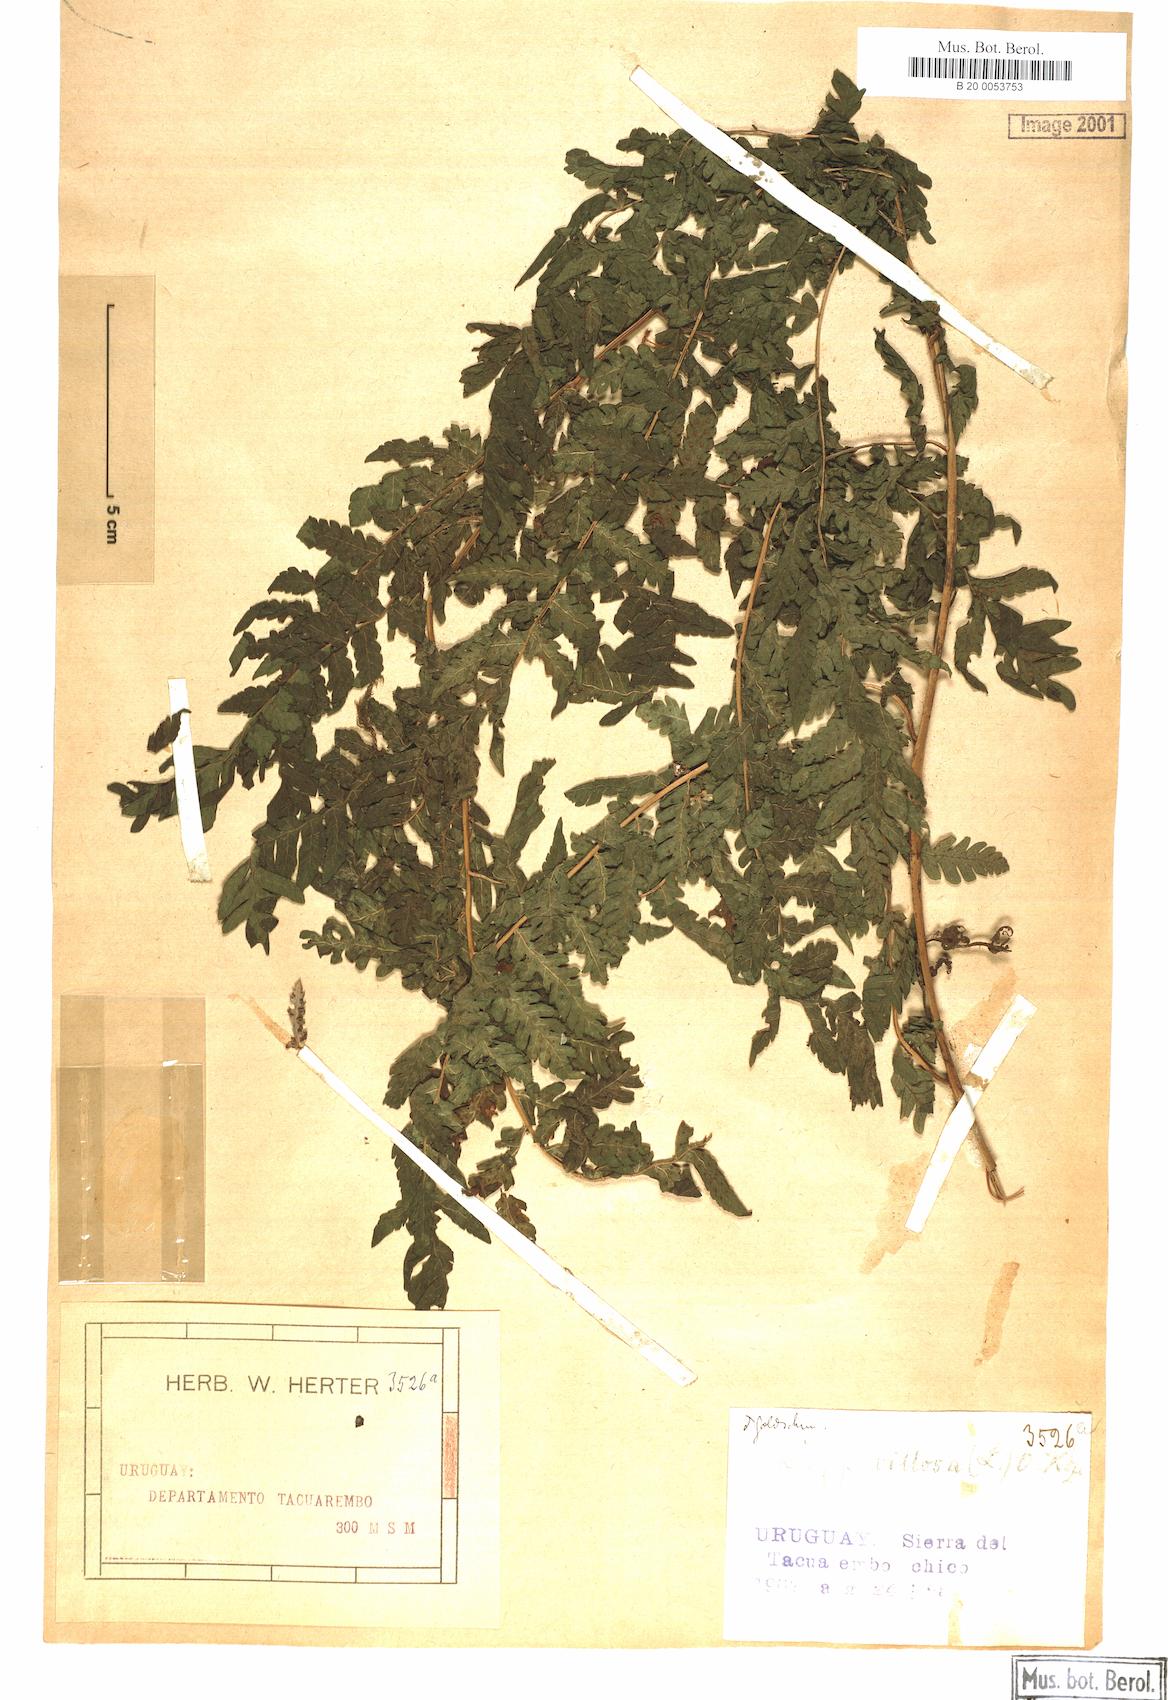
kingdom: Plantae
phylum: Tracheophyta
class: Polypodiopsida
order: Polypodiales
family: Dryopteridaceae
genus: Megalastrum
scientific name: Megalastrum villosum
